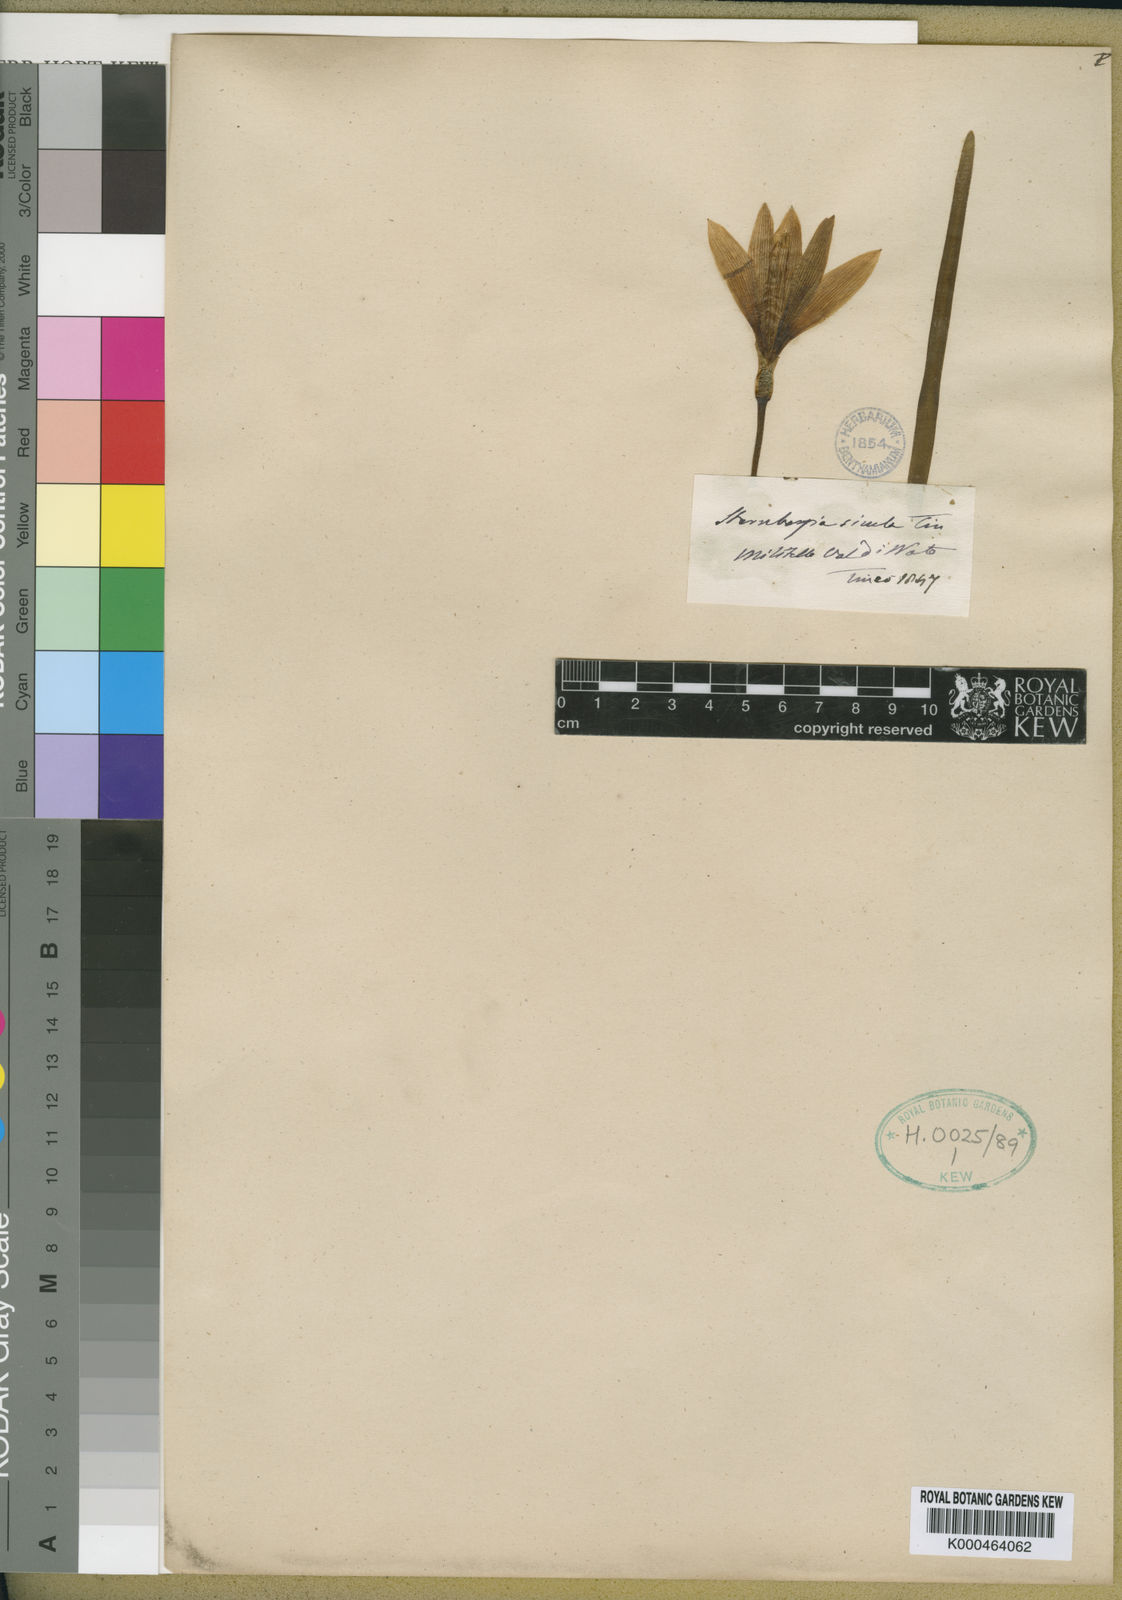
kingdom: Plantae
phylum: Tracheophyta
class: Liliopsida
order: Asparagales
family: Amaryllidaceae
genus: Sternbergia
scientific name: Sternbergia lutea
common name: Winter daffodil
